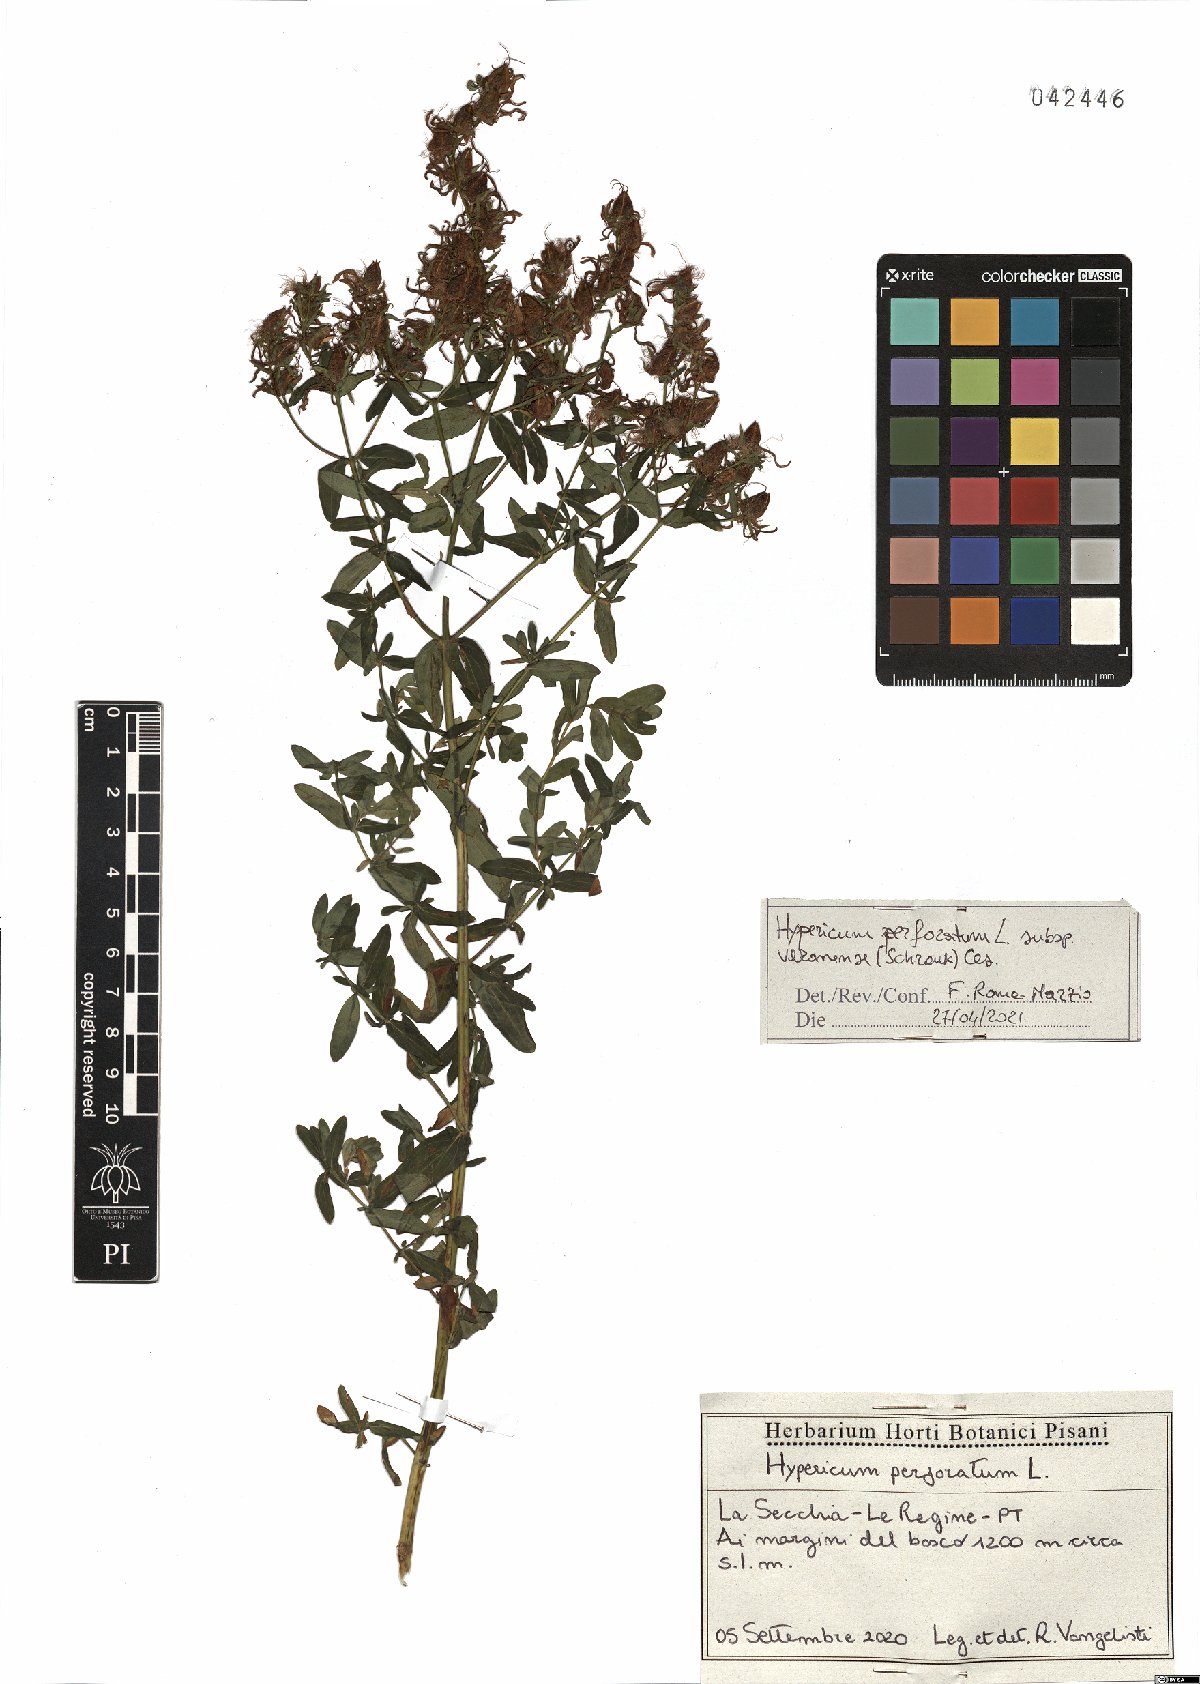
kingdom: Plantae
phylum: Tracheophyta
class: Magnoliopsida
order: Malpighiales
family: Hypericaceae
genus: Hypericum
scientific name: Hypericum veronense
